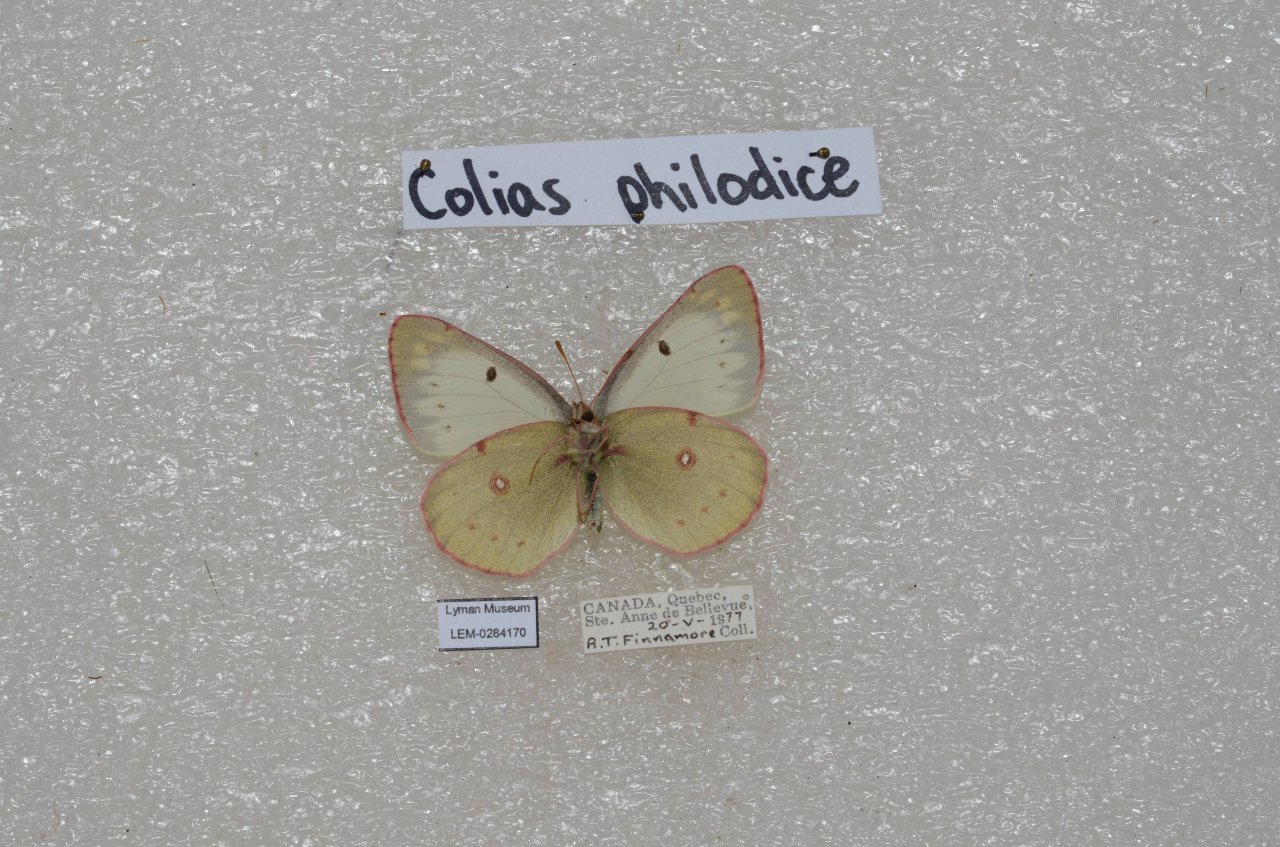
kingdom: Animalia
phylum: Arthropoda
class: Insecta
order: Lepidoptera
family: Pieridae
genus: Colias
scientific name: Colias philodice
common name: Clouded Sulphur
